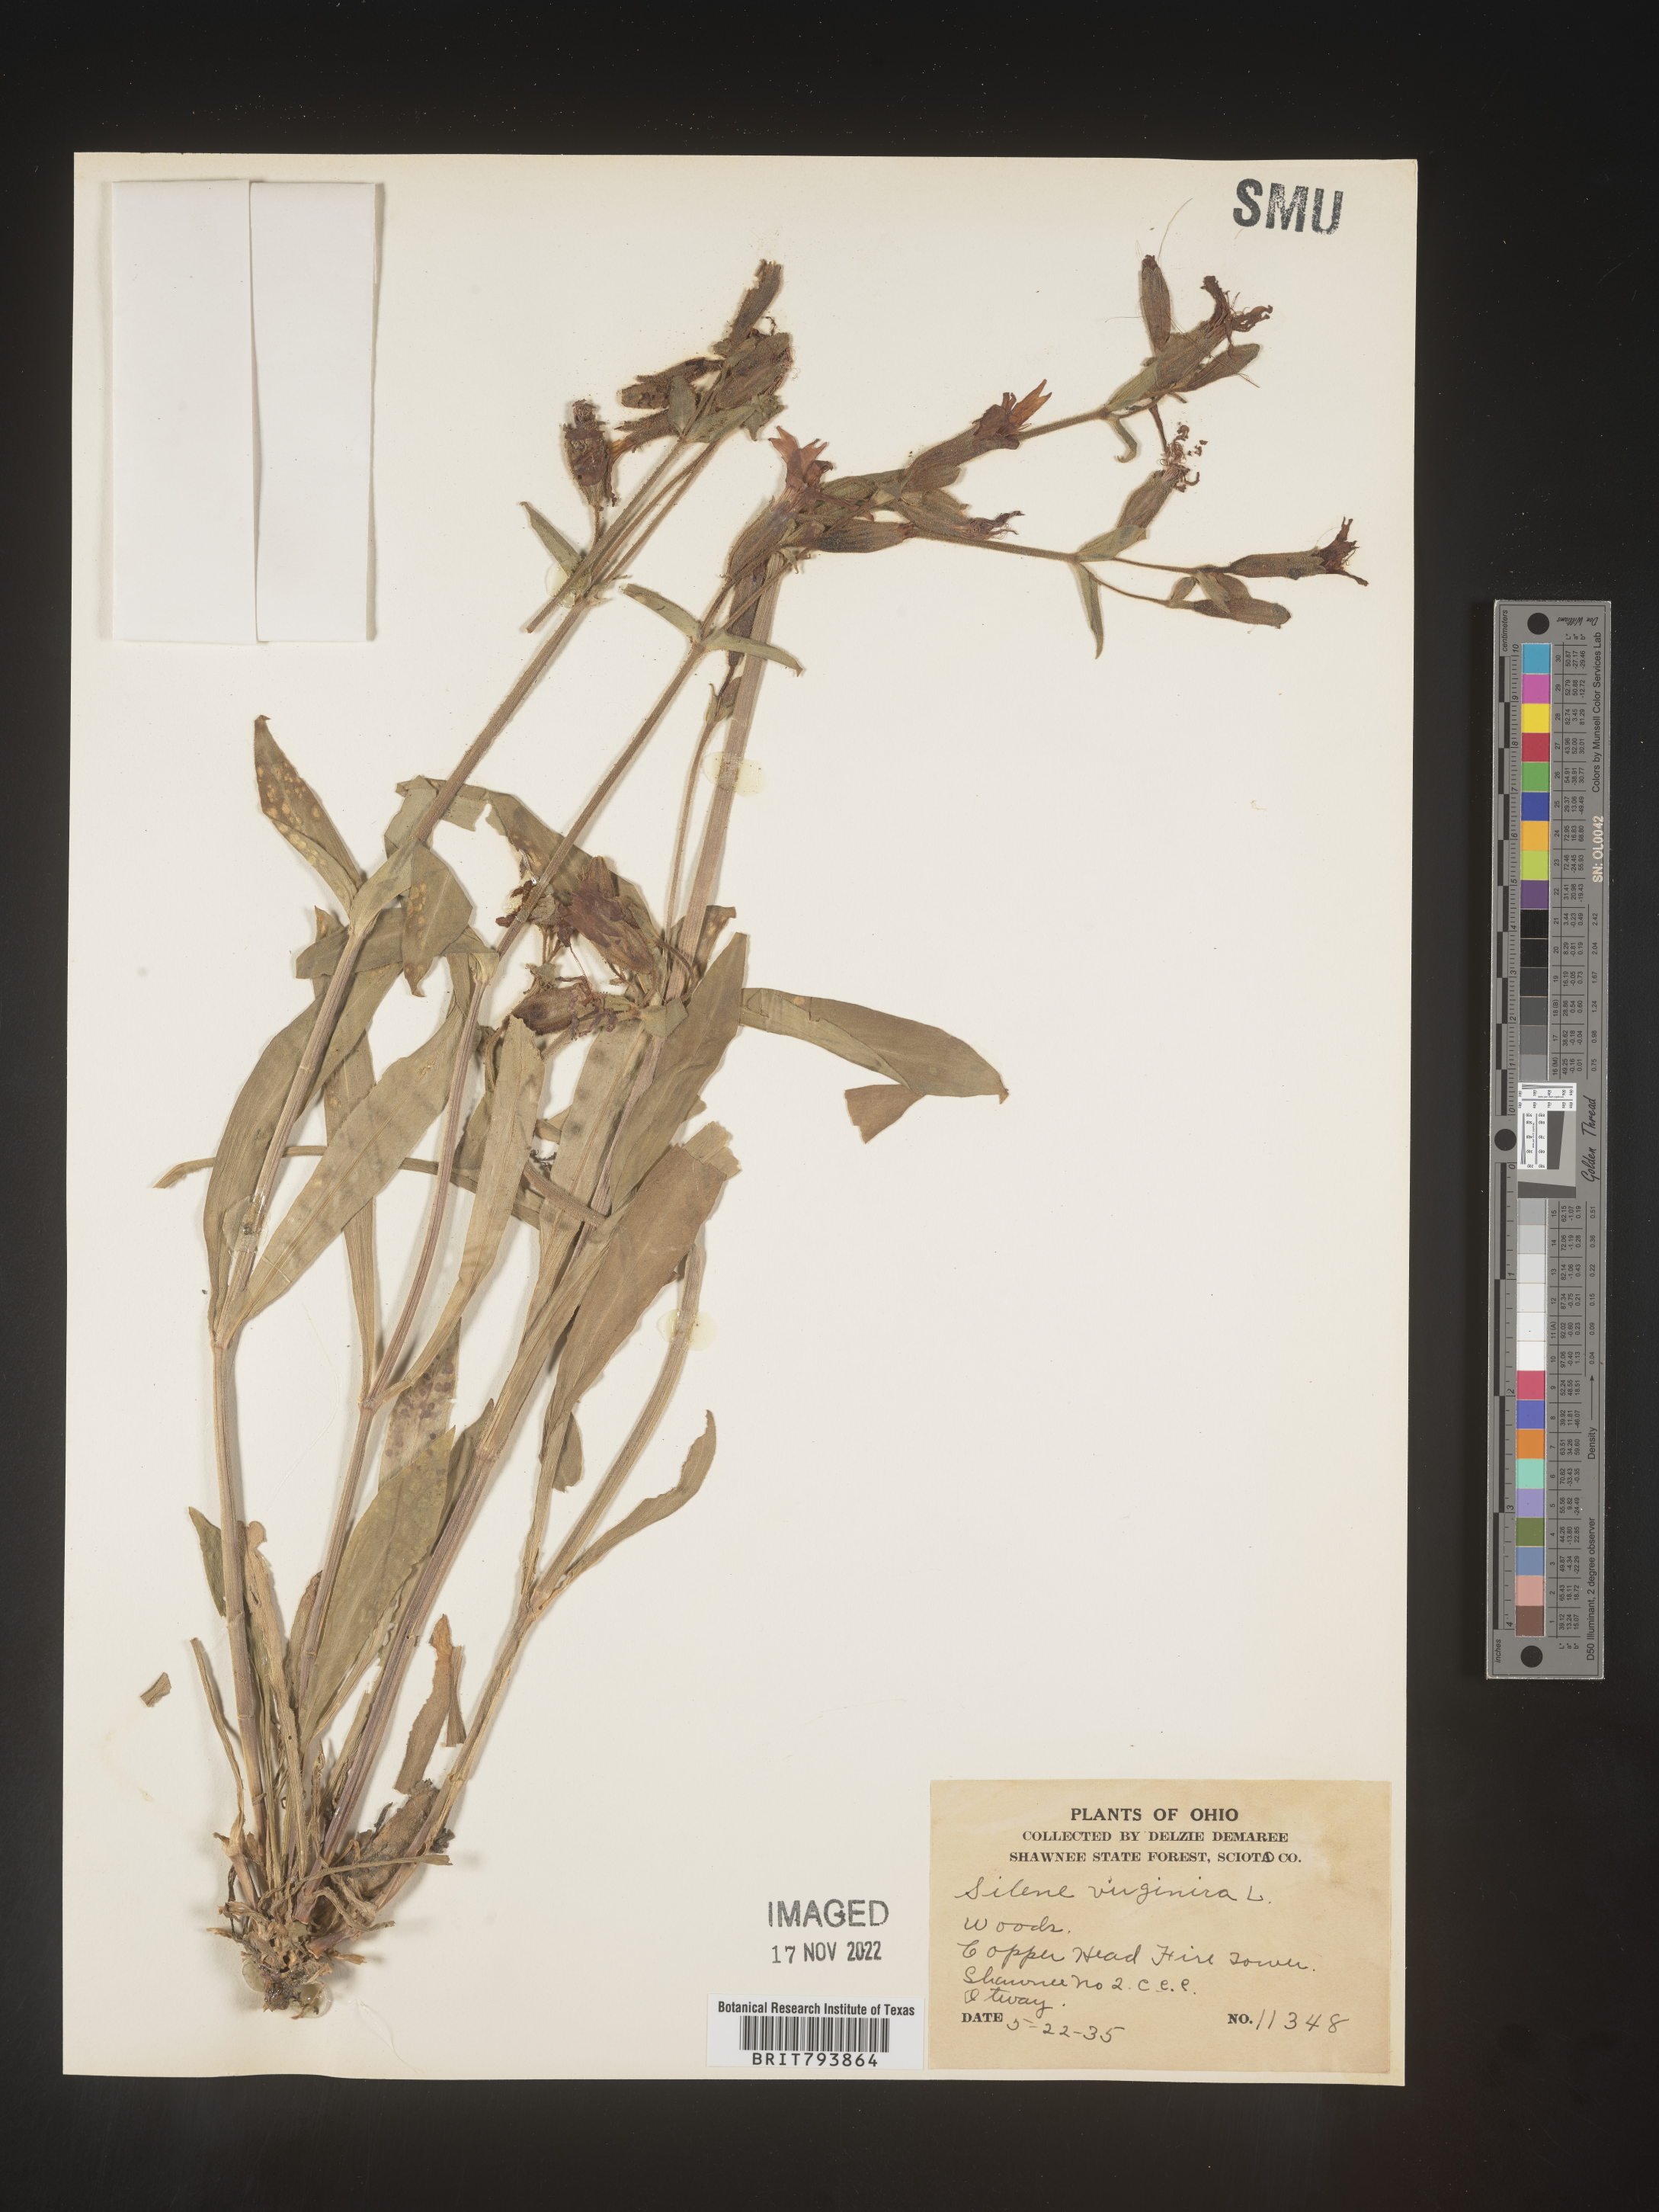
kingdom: Plantae
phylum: Tracheophyta
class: Magnoliopsida
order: Caryophyllales
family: Caryophyllaceae
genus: Silene
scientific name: Silene virginica
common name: Fire-pink
